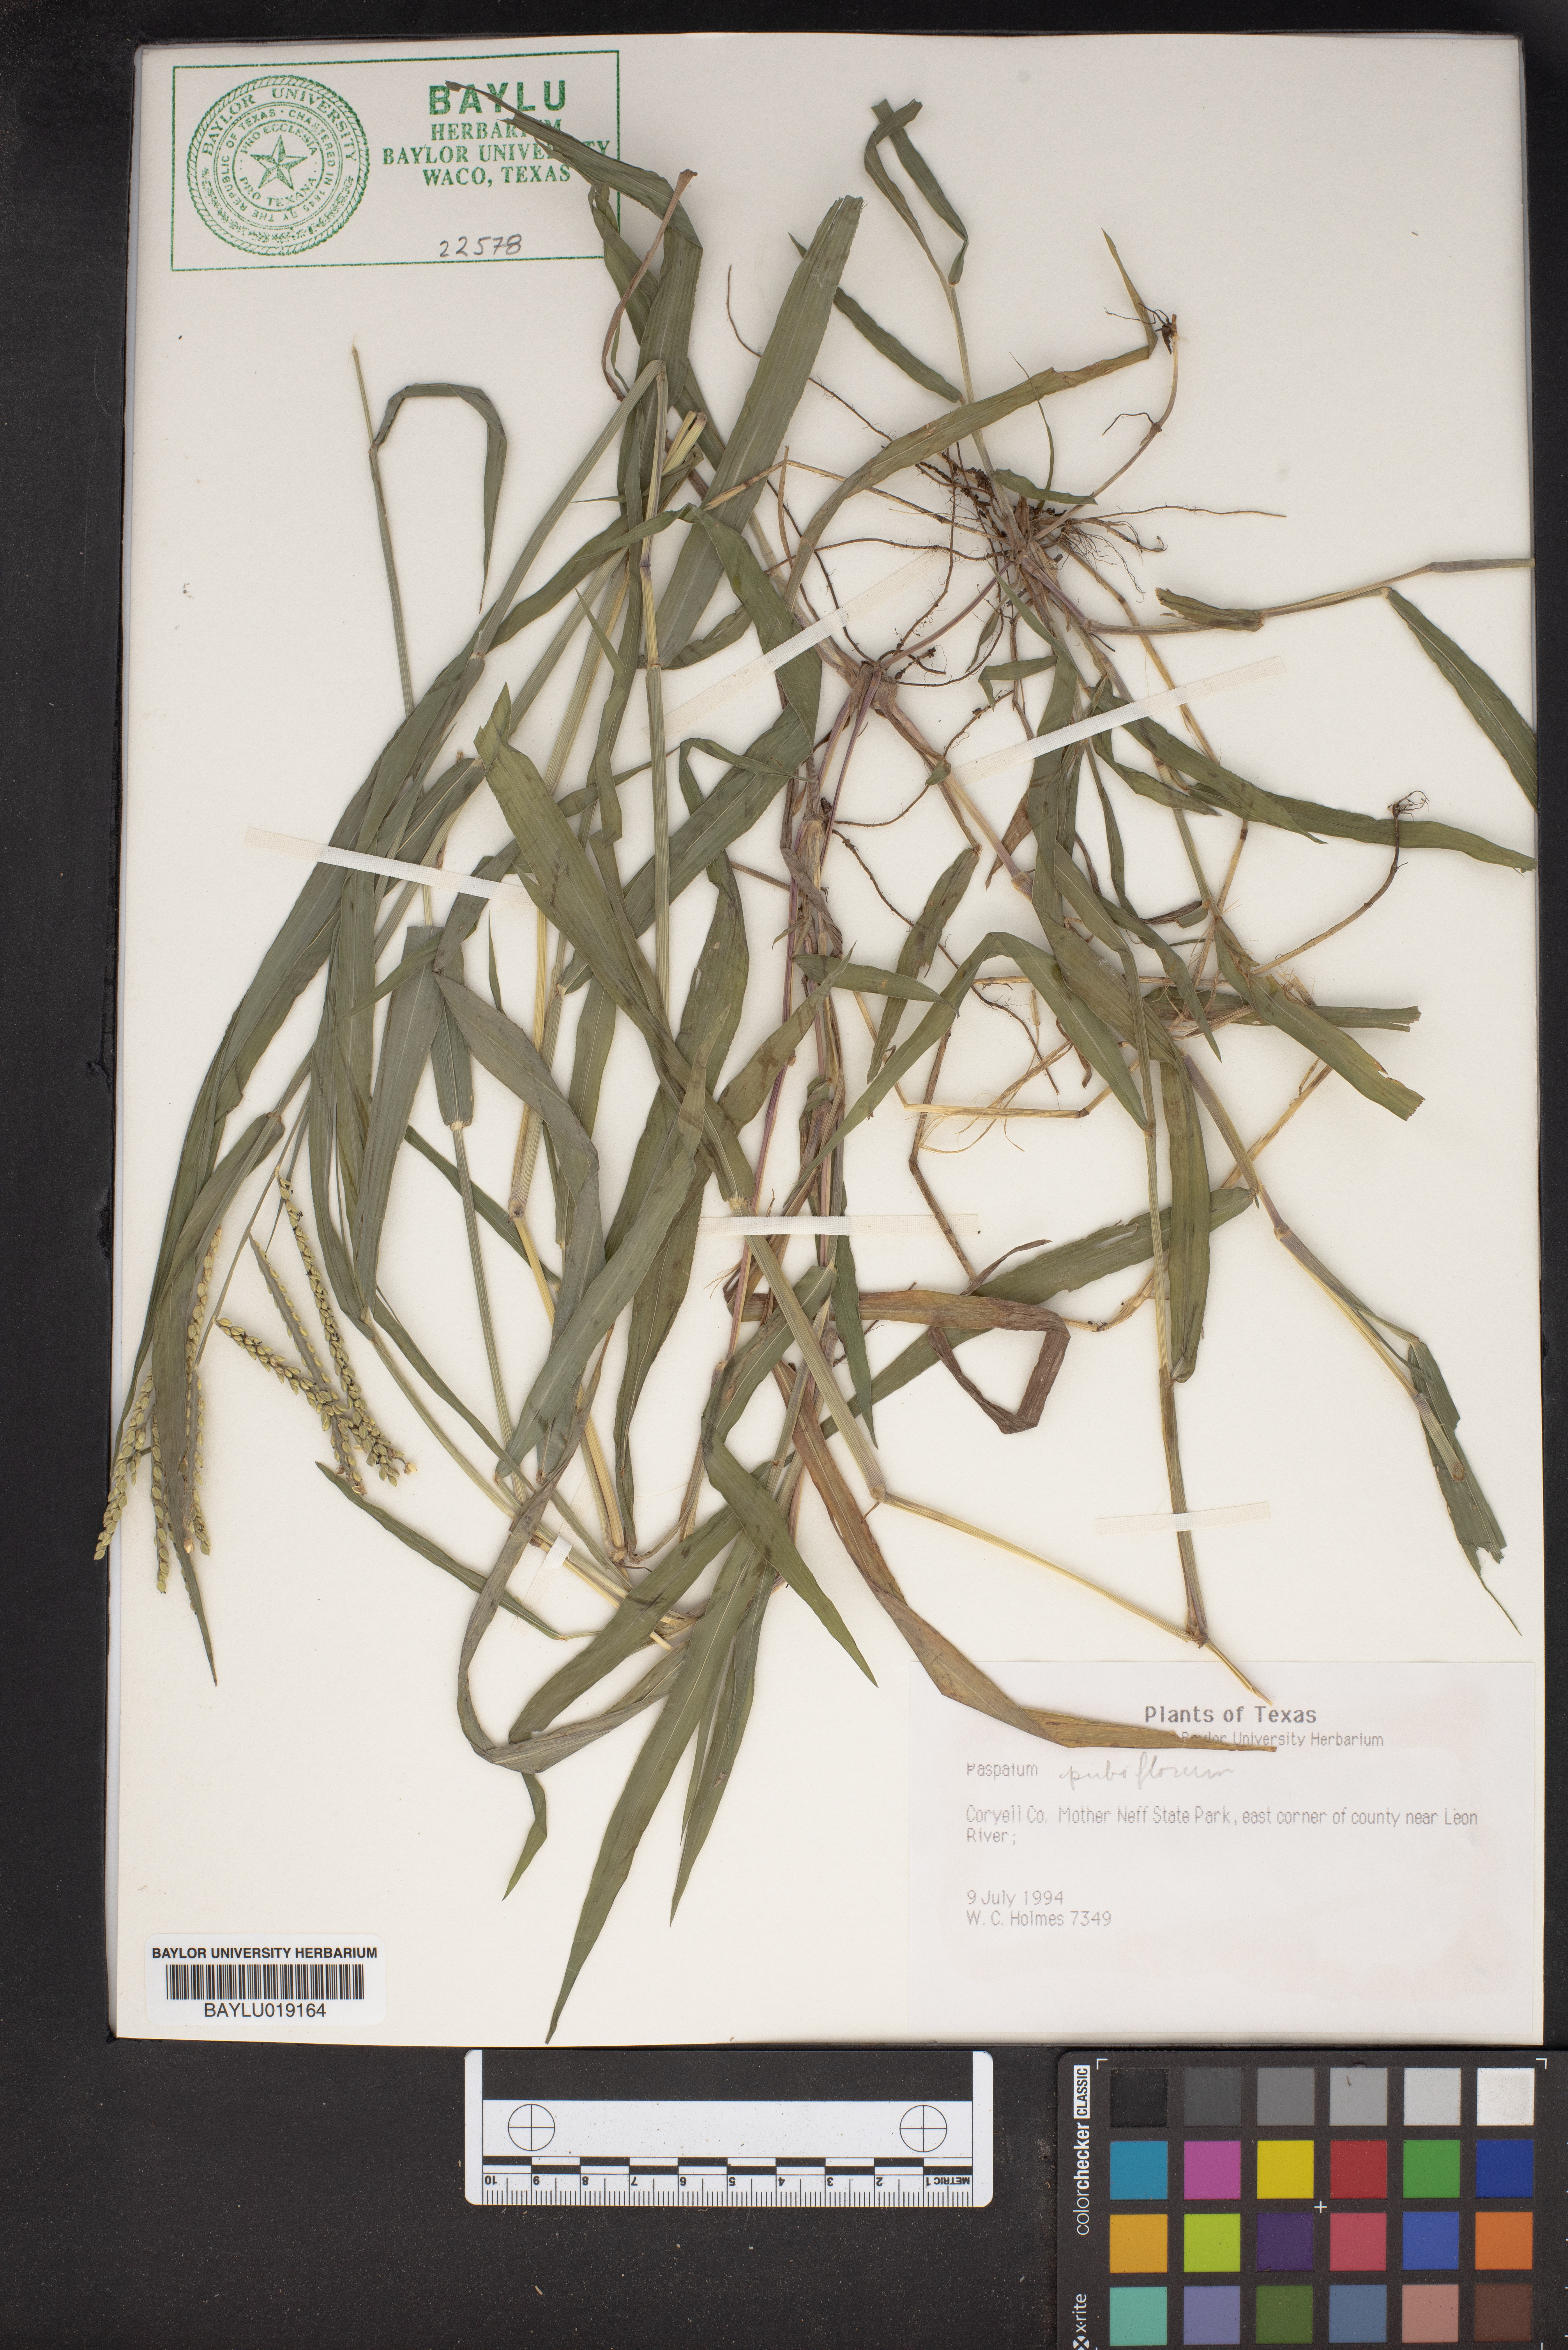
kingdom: Plantae
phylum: Tracheophyta
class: Liliopsida
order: Poales
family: Poaceae
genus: Paspalum
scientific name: Paspalum pubiflorum
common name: Hairy-seed paspalum
